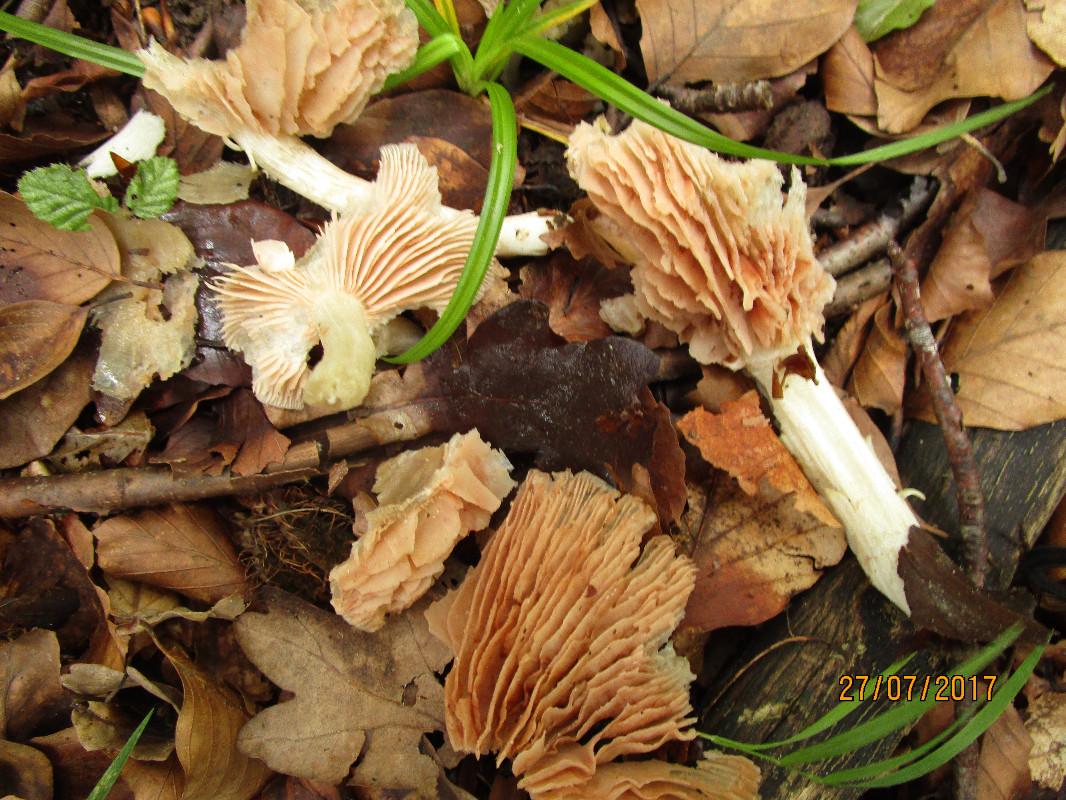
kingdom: Fungi
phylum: Basidiomycota
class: Agaricomycetes
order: Agaricales
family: Entolomataceae
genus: Entoloma
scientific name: Entoloma
